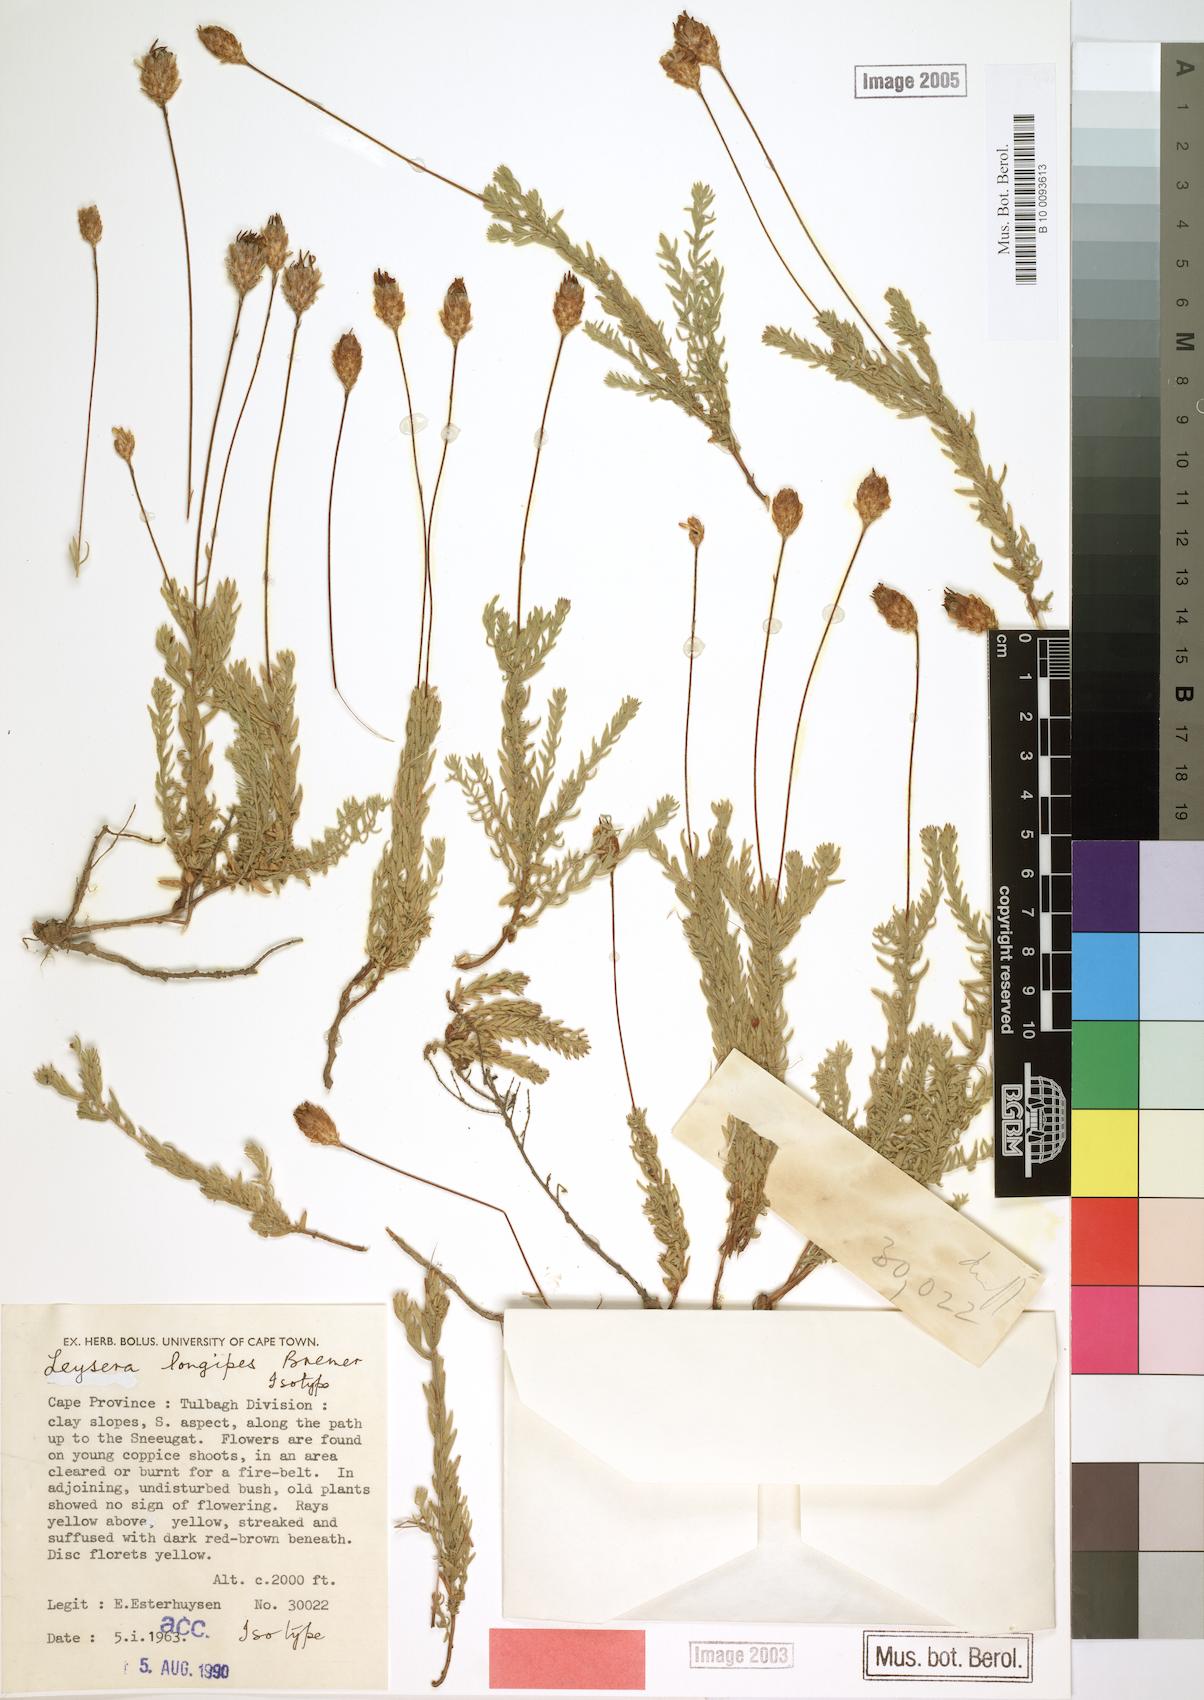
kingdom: Plantae
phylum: Tracheophyta
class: Magnoliopsida
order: Asterales
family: Asteraceae
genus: Oedera
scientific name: Oedera longipes
